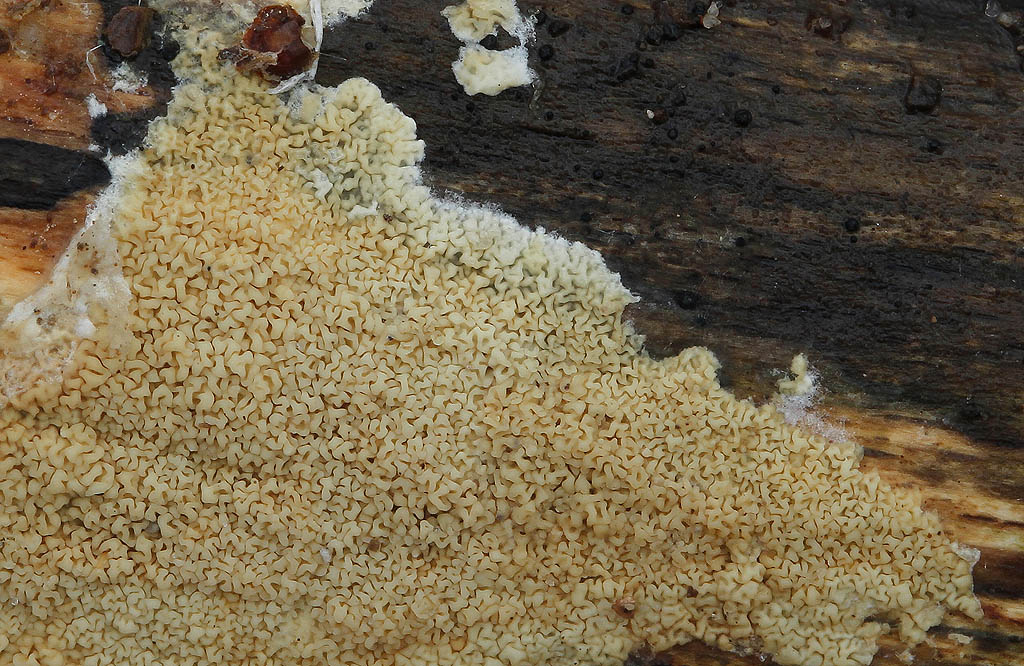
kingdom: Fungi
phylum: Basidiomycota
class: Agaricomycetes
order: Polyporales
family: Irpicaceae
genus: Crystallicutis
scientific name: Crystallicutis serpens
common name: gråviolet barkhinde
